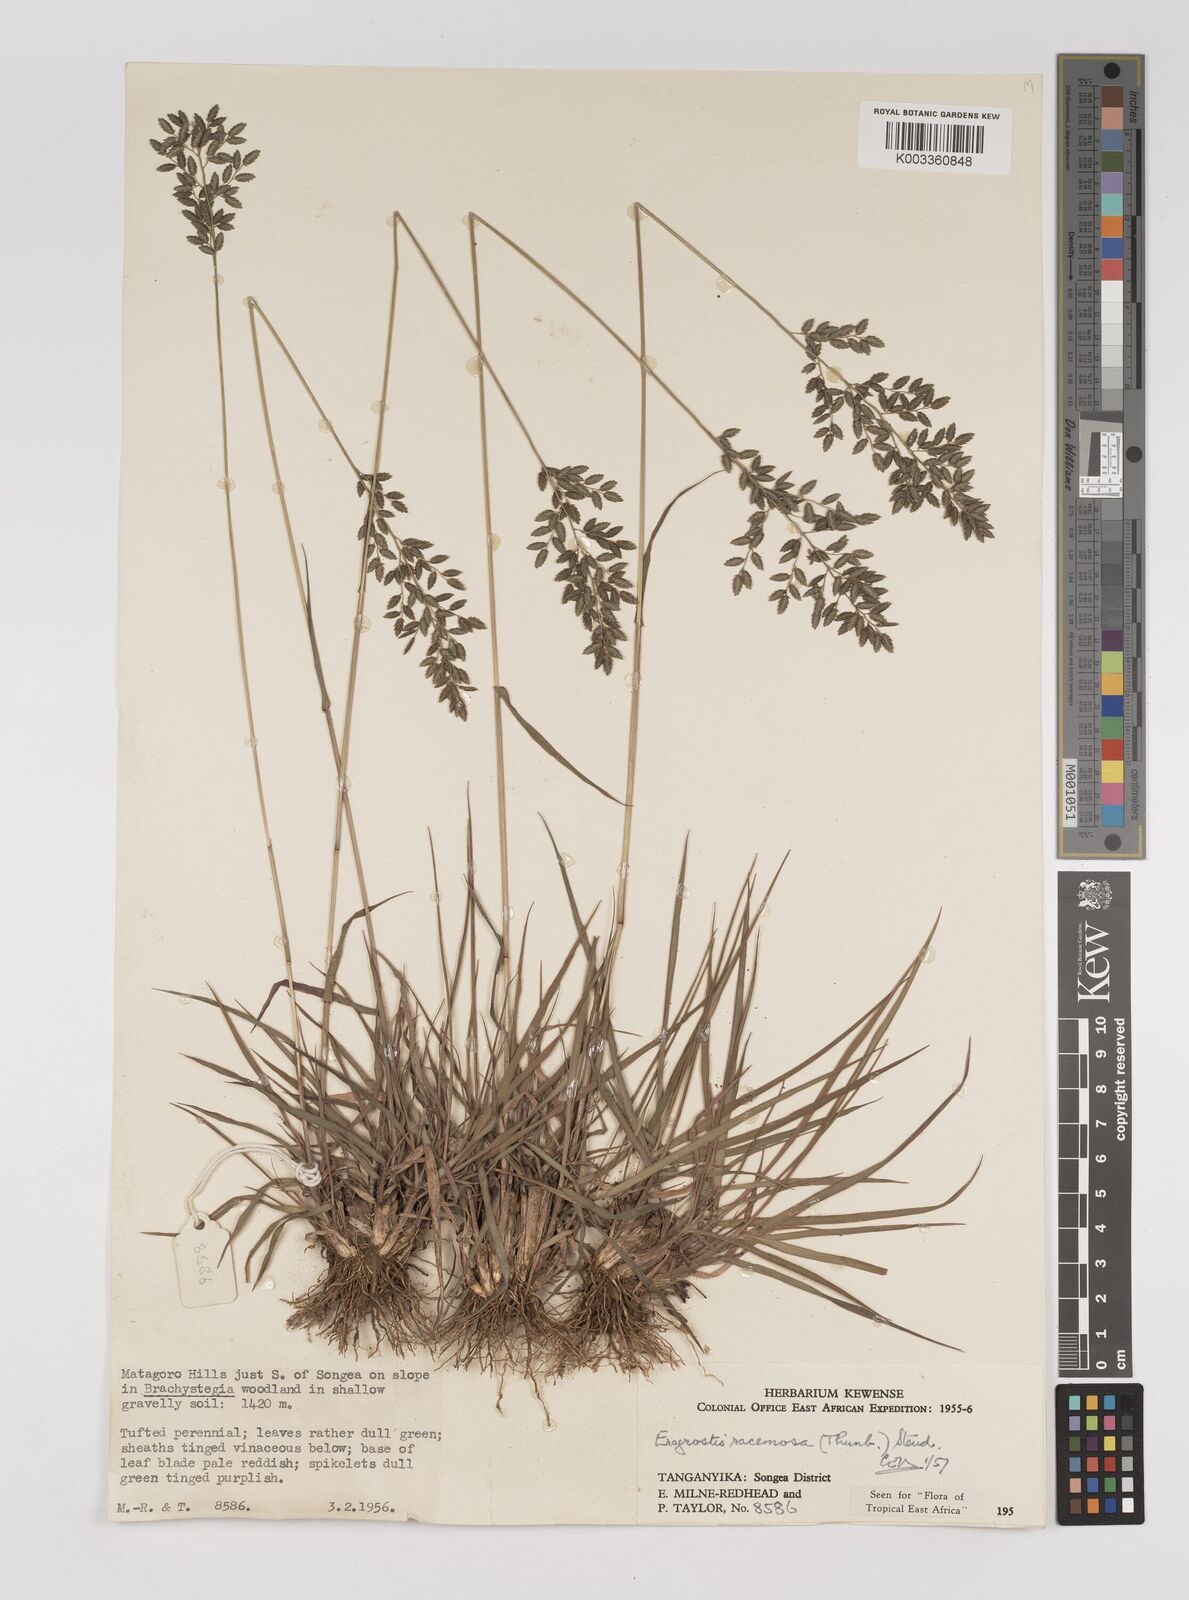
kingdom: Plantae
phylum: Tracheophyta
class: Liliopsida
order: Poales
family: Poaceae
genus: Eragrostis
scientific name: Eragrostis racemosa
